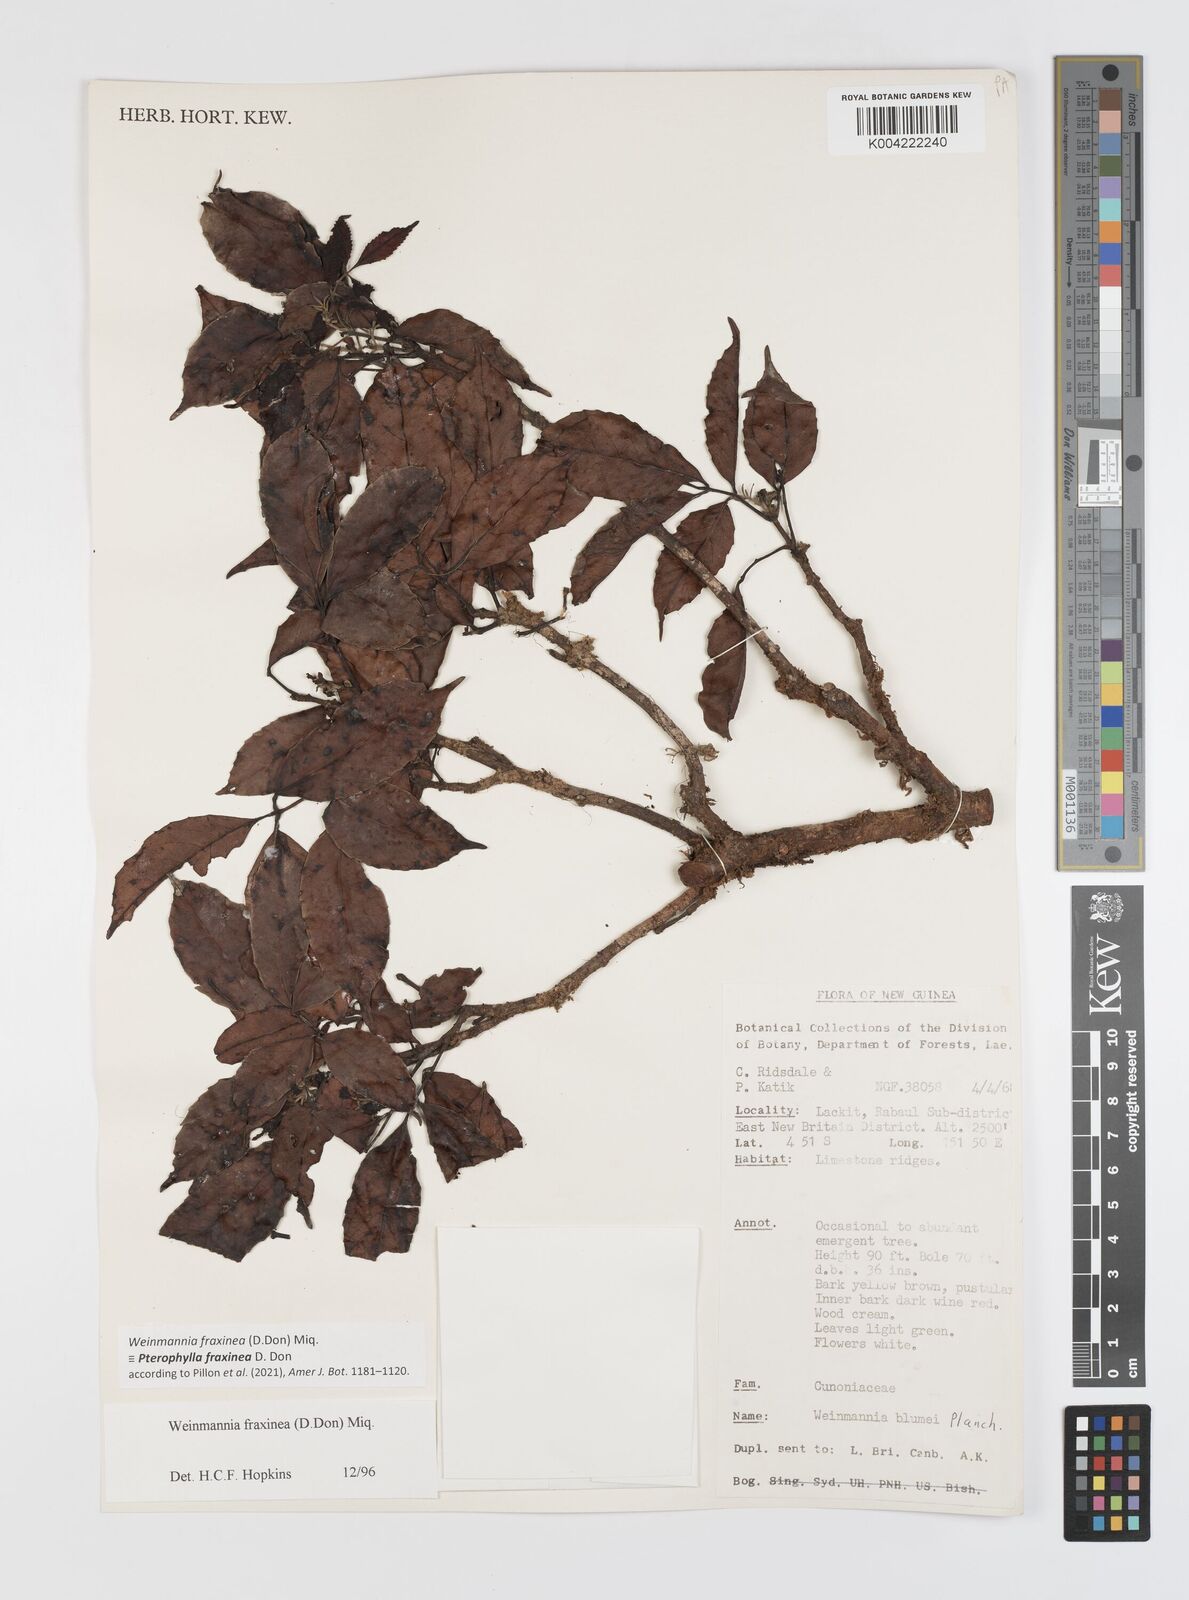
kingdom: Plantae
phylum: Tracheophyta
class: Magnoliopsida
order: Oxalidales
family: Cunoniaceae
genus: Pterophylla
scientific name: Pterophylla fraxinea
